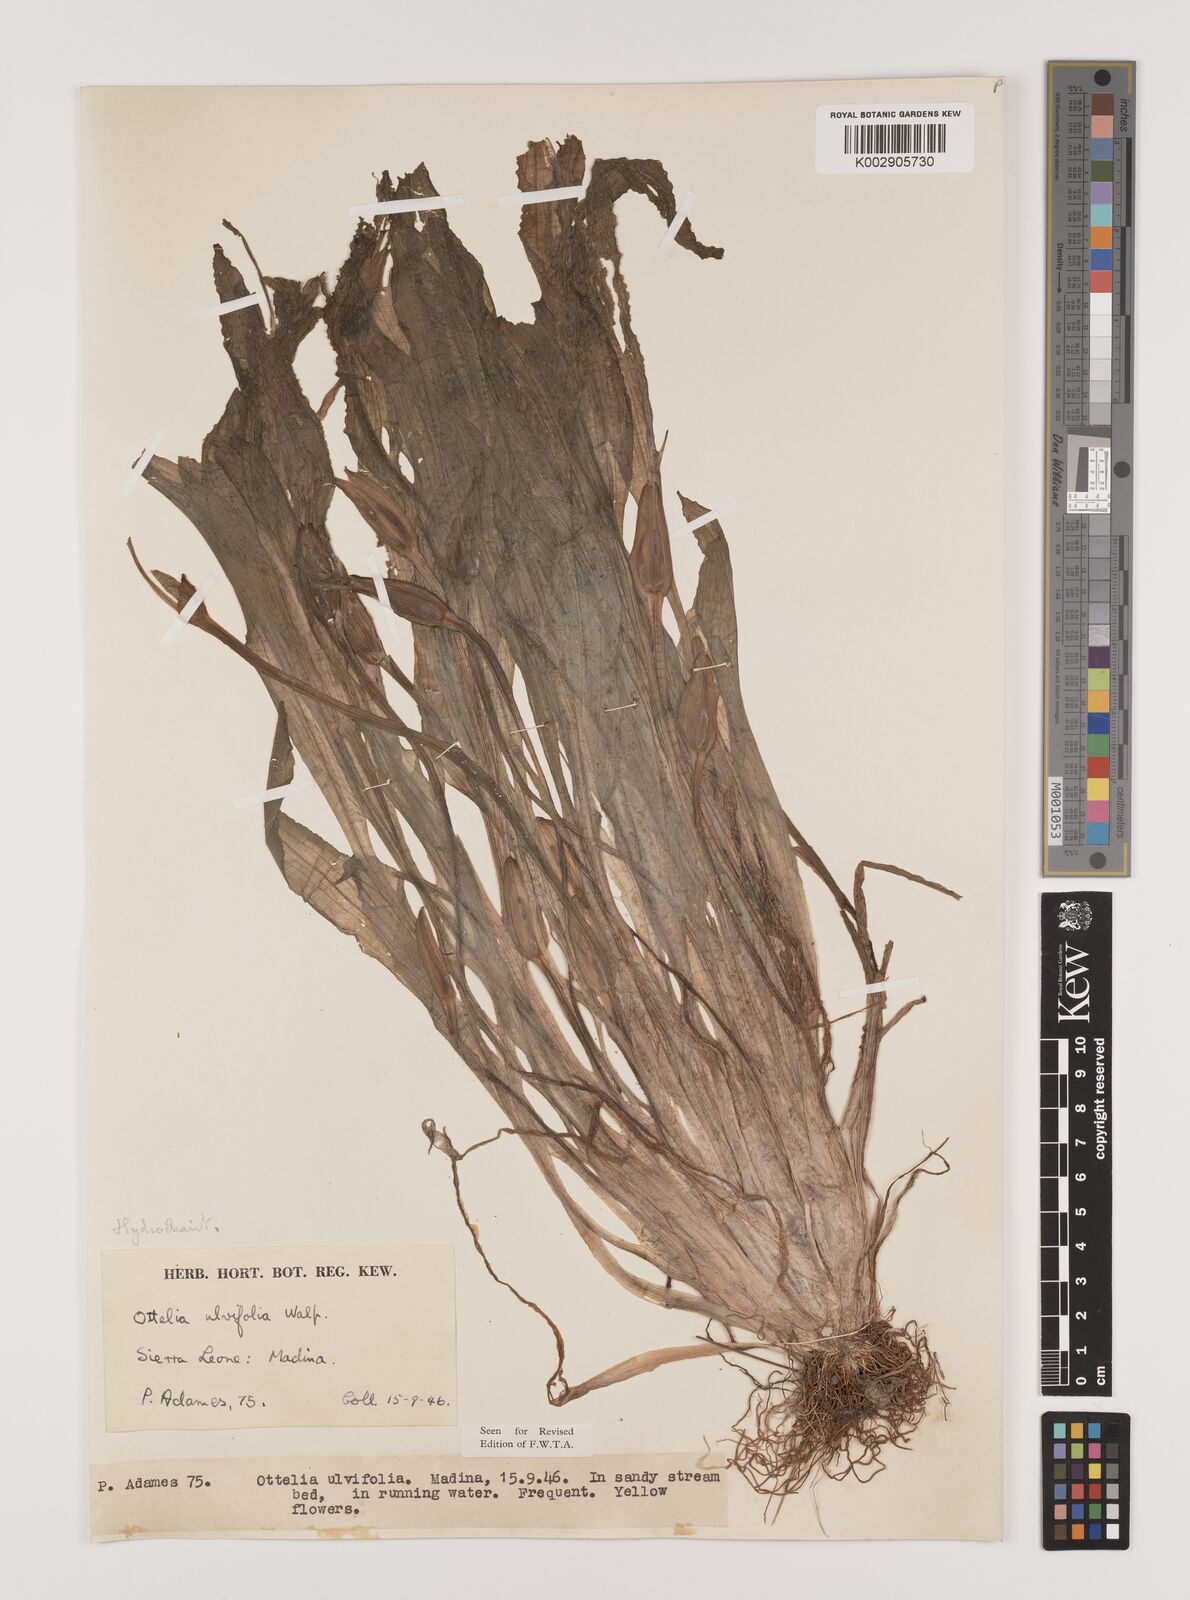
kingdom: Plantae
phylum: Tracheophyta
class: Liliopsida
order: Alismatales
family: Hydrocharitaceae
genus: Ottelia
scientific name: Ottelia ulvifolia
